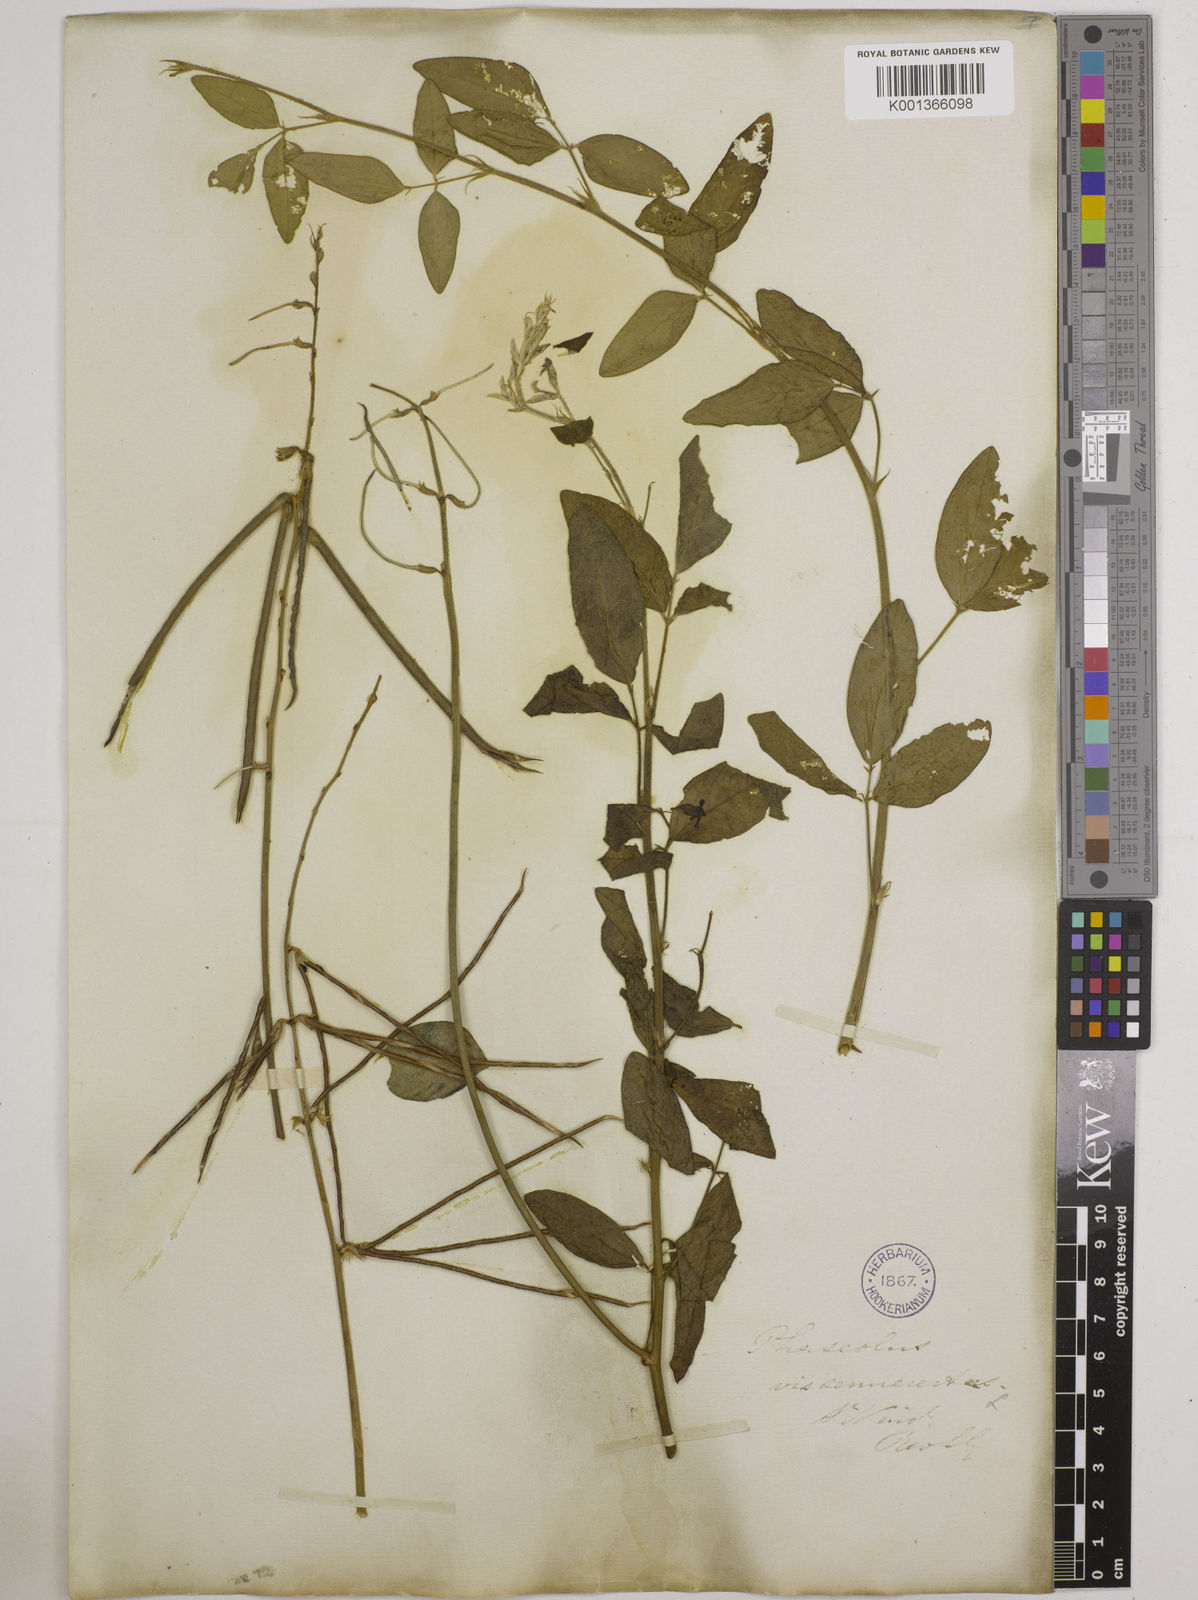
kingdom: Plantae
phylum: Tracheophyta
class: Magnoliopsida
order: Fabales
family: Fabaceae
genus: Macroptilium
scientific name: Macroptilium lathyroides
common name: Wild bushbean
